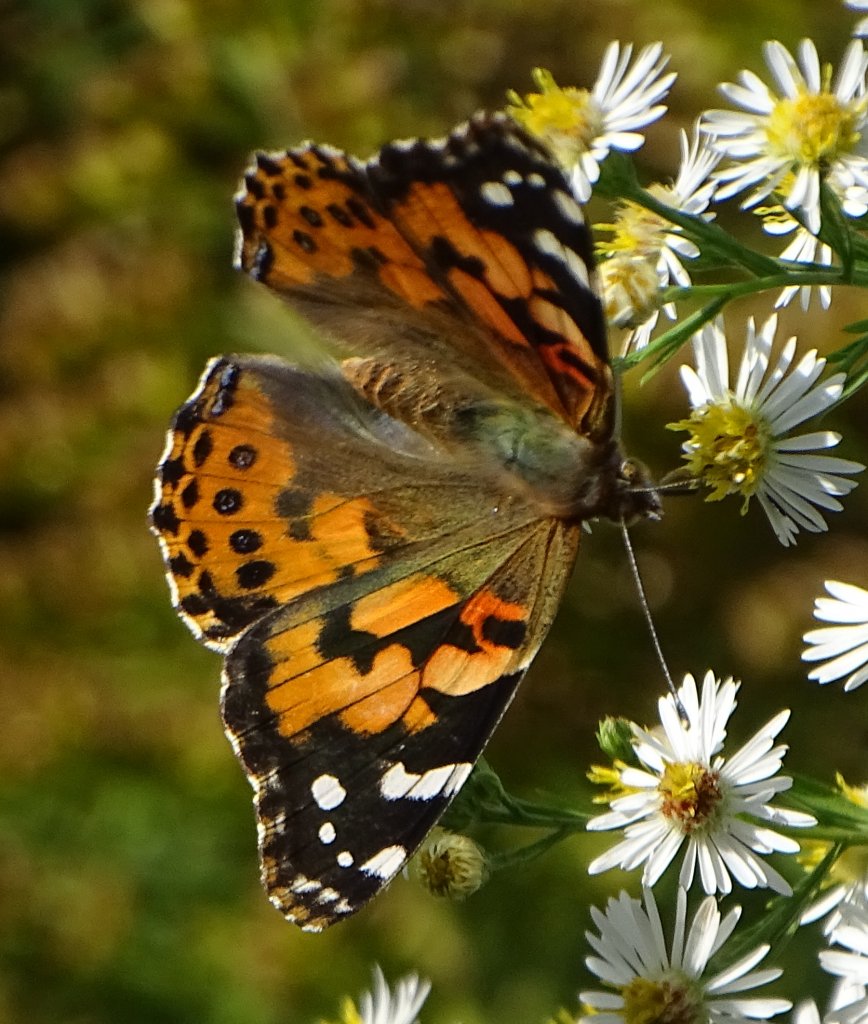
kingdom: Animalia
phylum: Arthropoda
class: Insecta
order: Lepidoptera
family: Nymphalidae
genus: Vanessa
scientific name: Vanessa cardui
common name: Painted Lady
